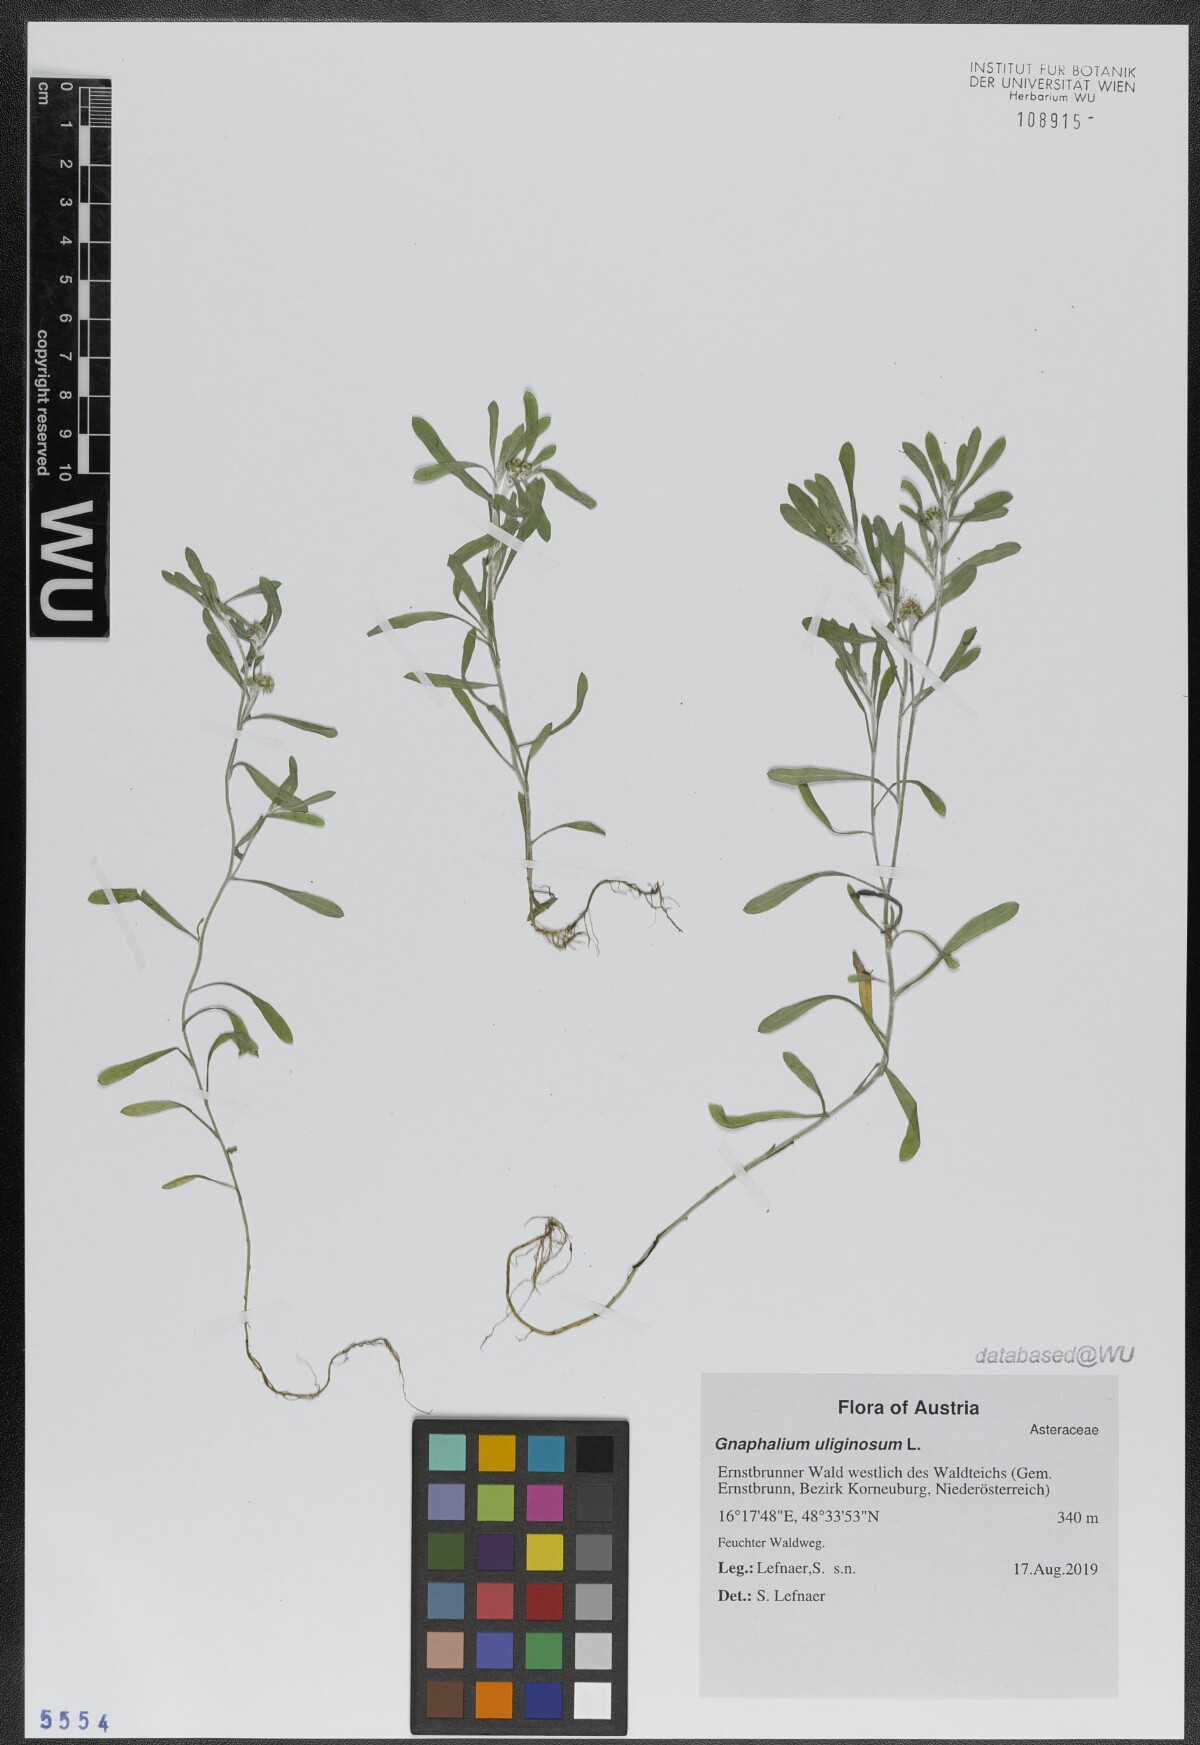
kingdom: Plantae
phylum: Tracheophyta
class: Magnoliopsida
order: Asterales
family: Asteraceae
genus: Gnaphalium
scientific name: Gnaphalium uliginosum
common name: Marsh cudweed
